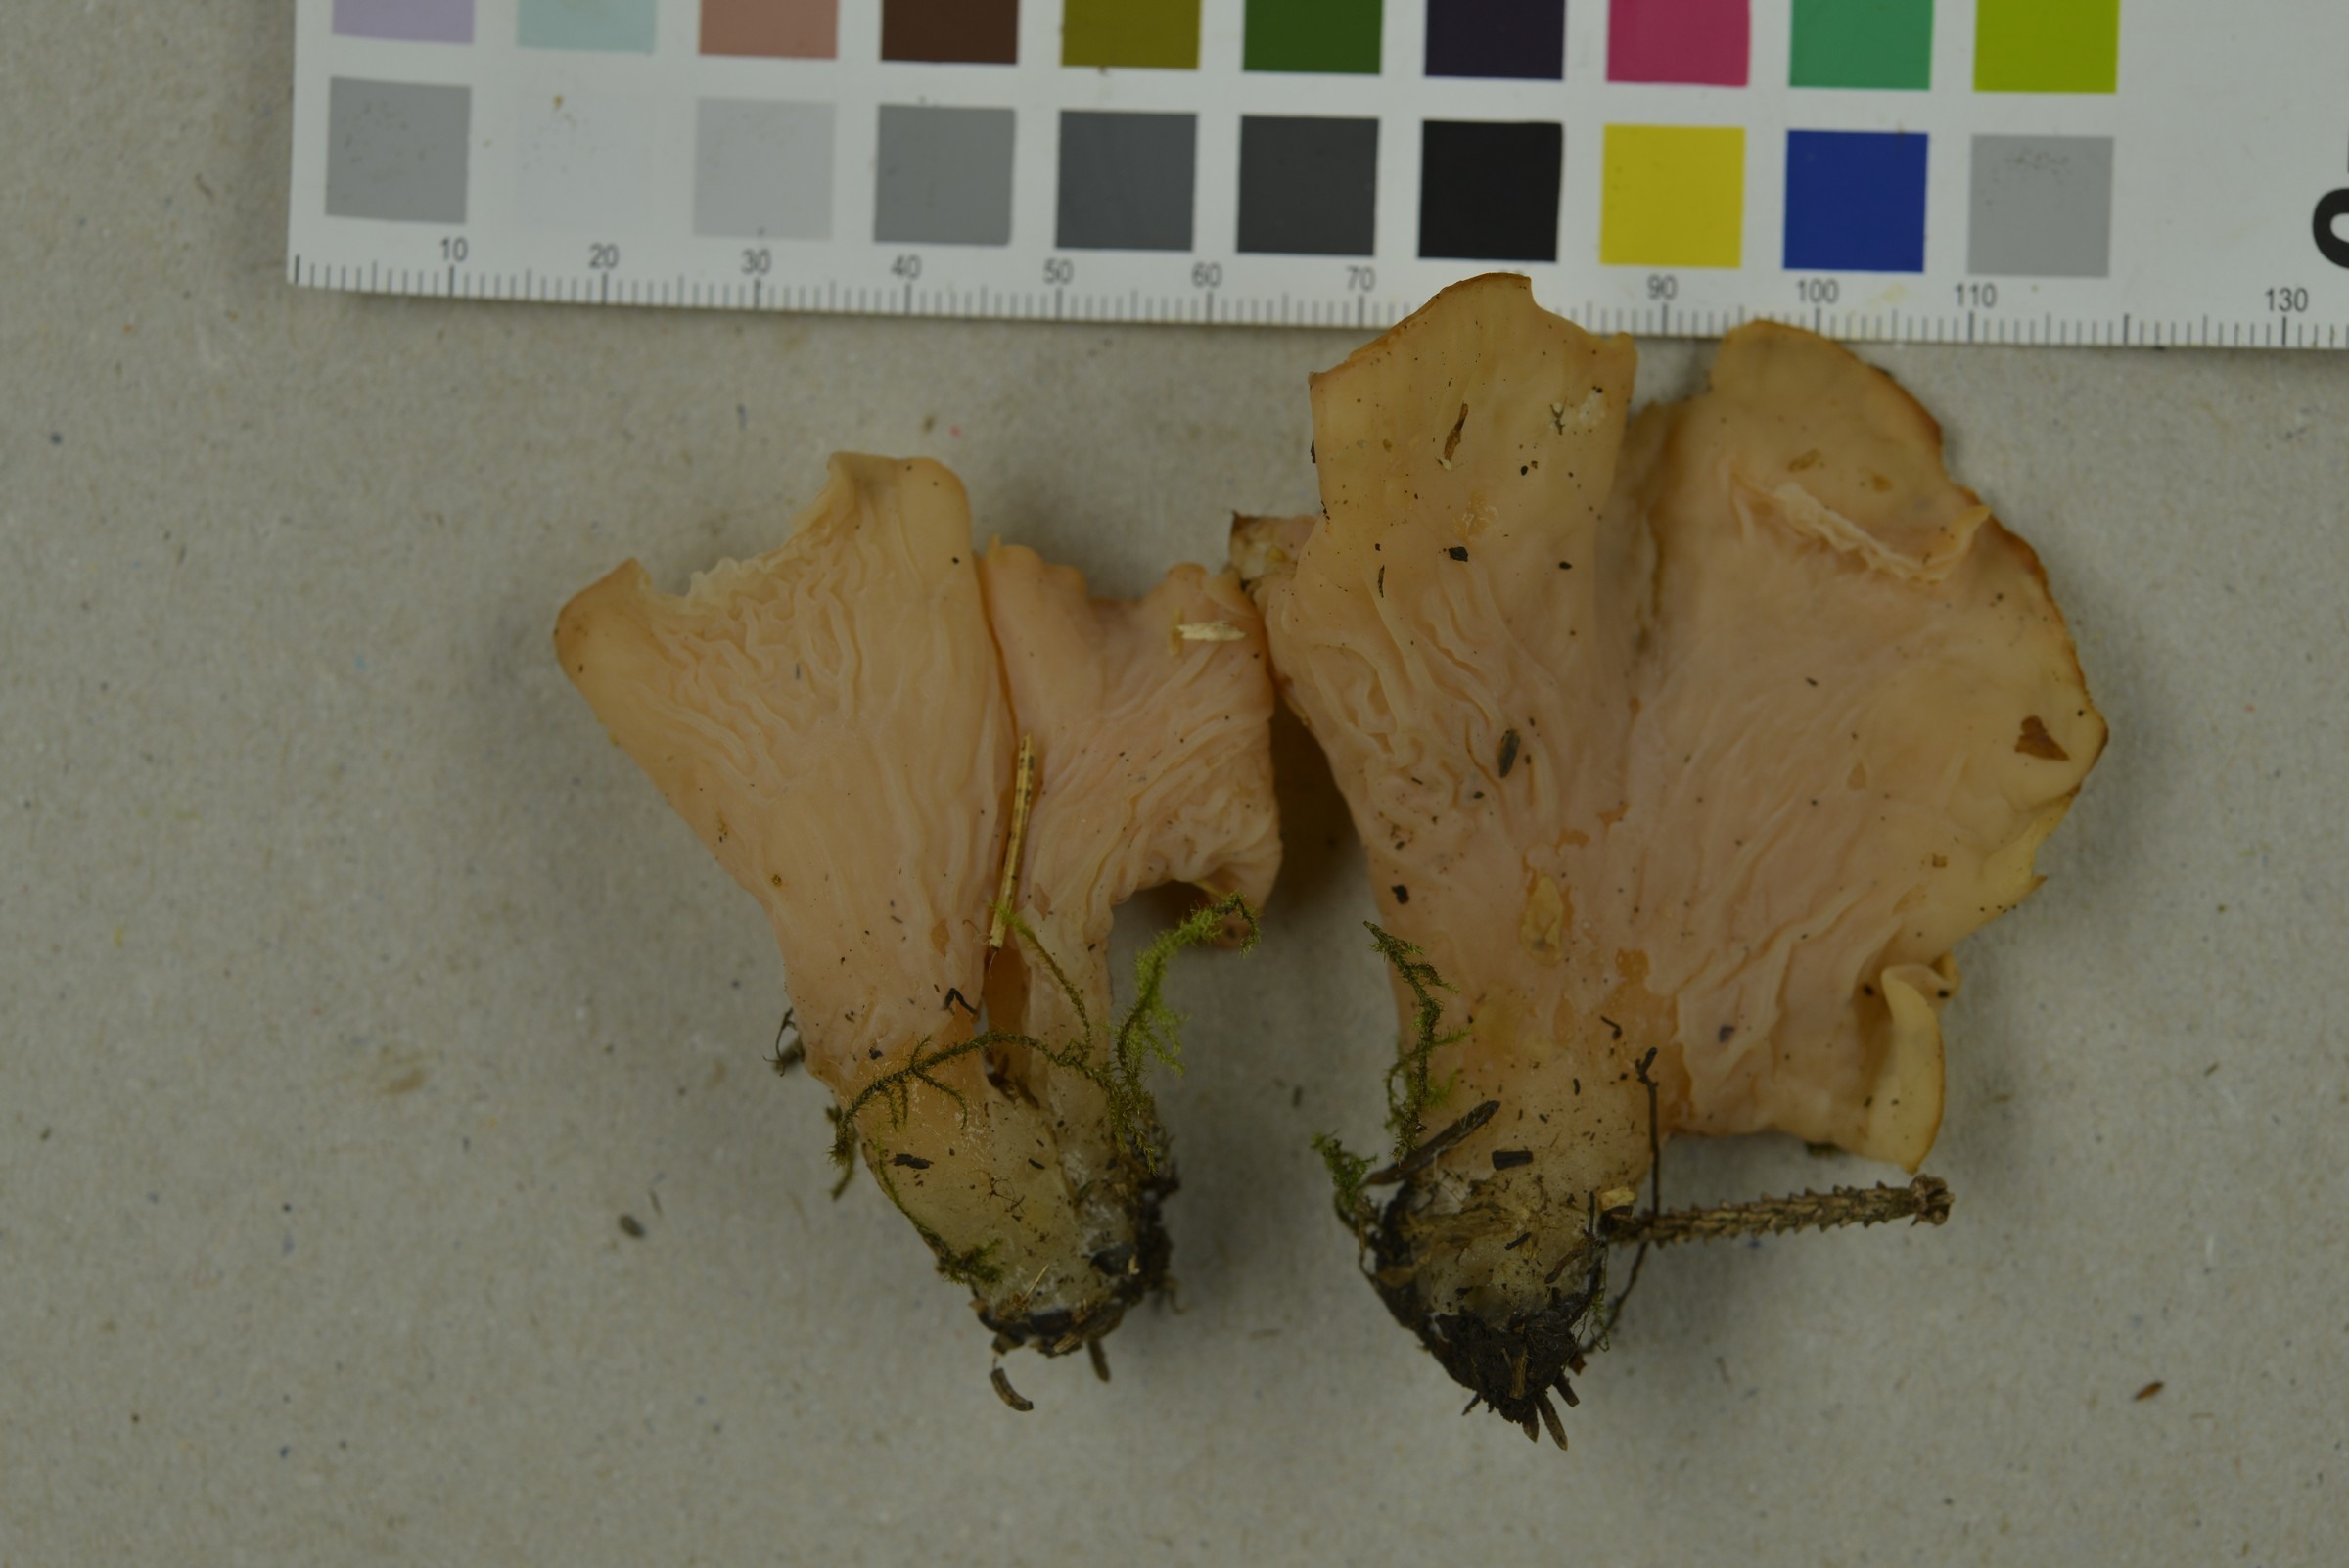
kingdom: Fungi
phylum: Basidiomycota
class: Agaricomycetes
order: Auriculariales
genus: Guepinia
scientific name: Guepinia helvelloides
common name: Salmon salad
